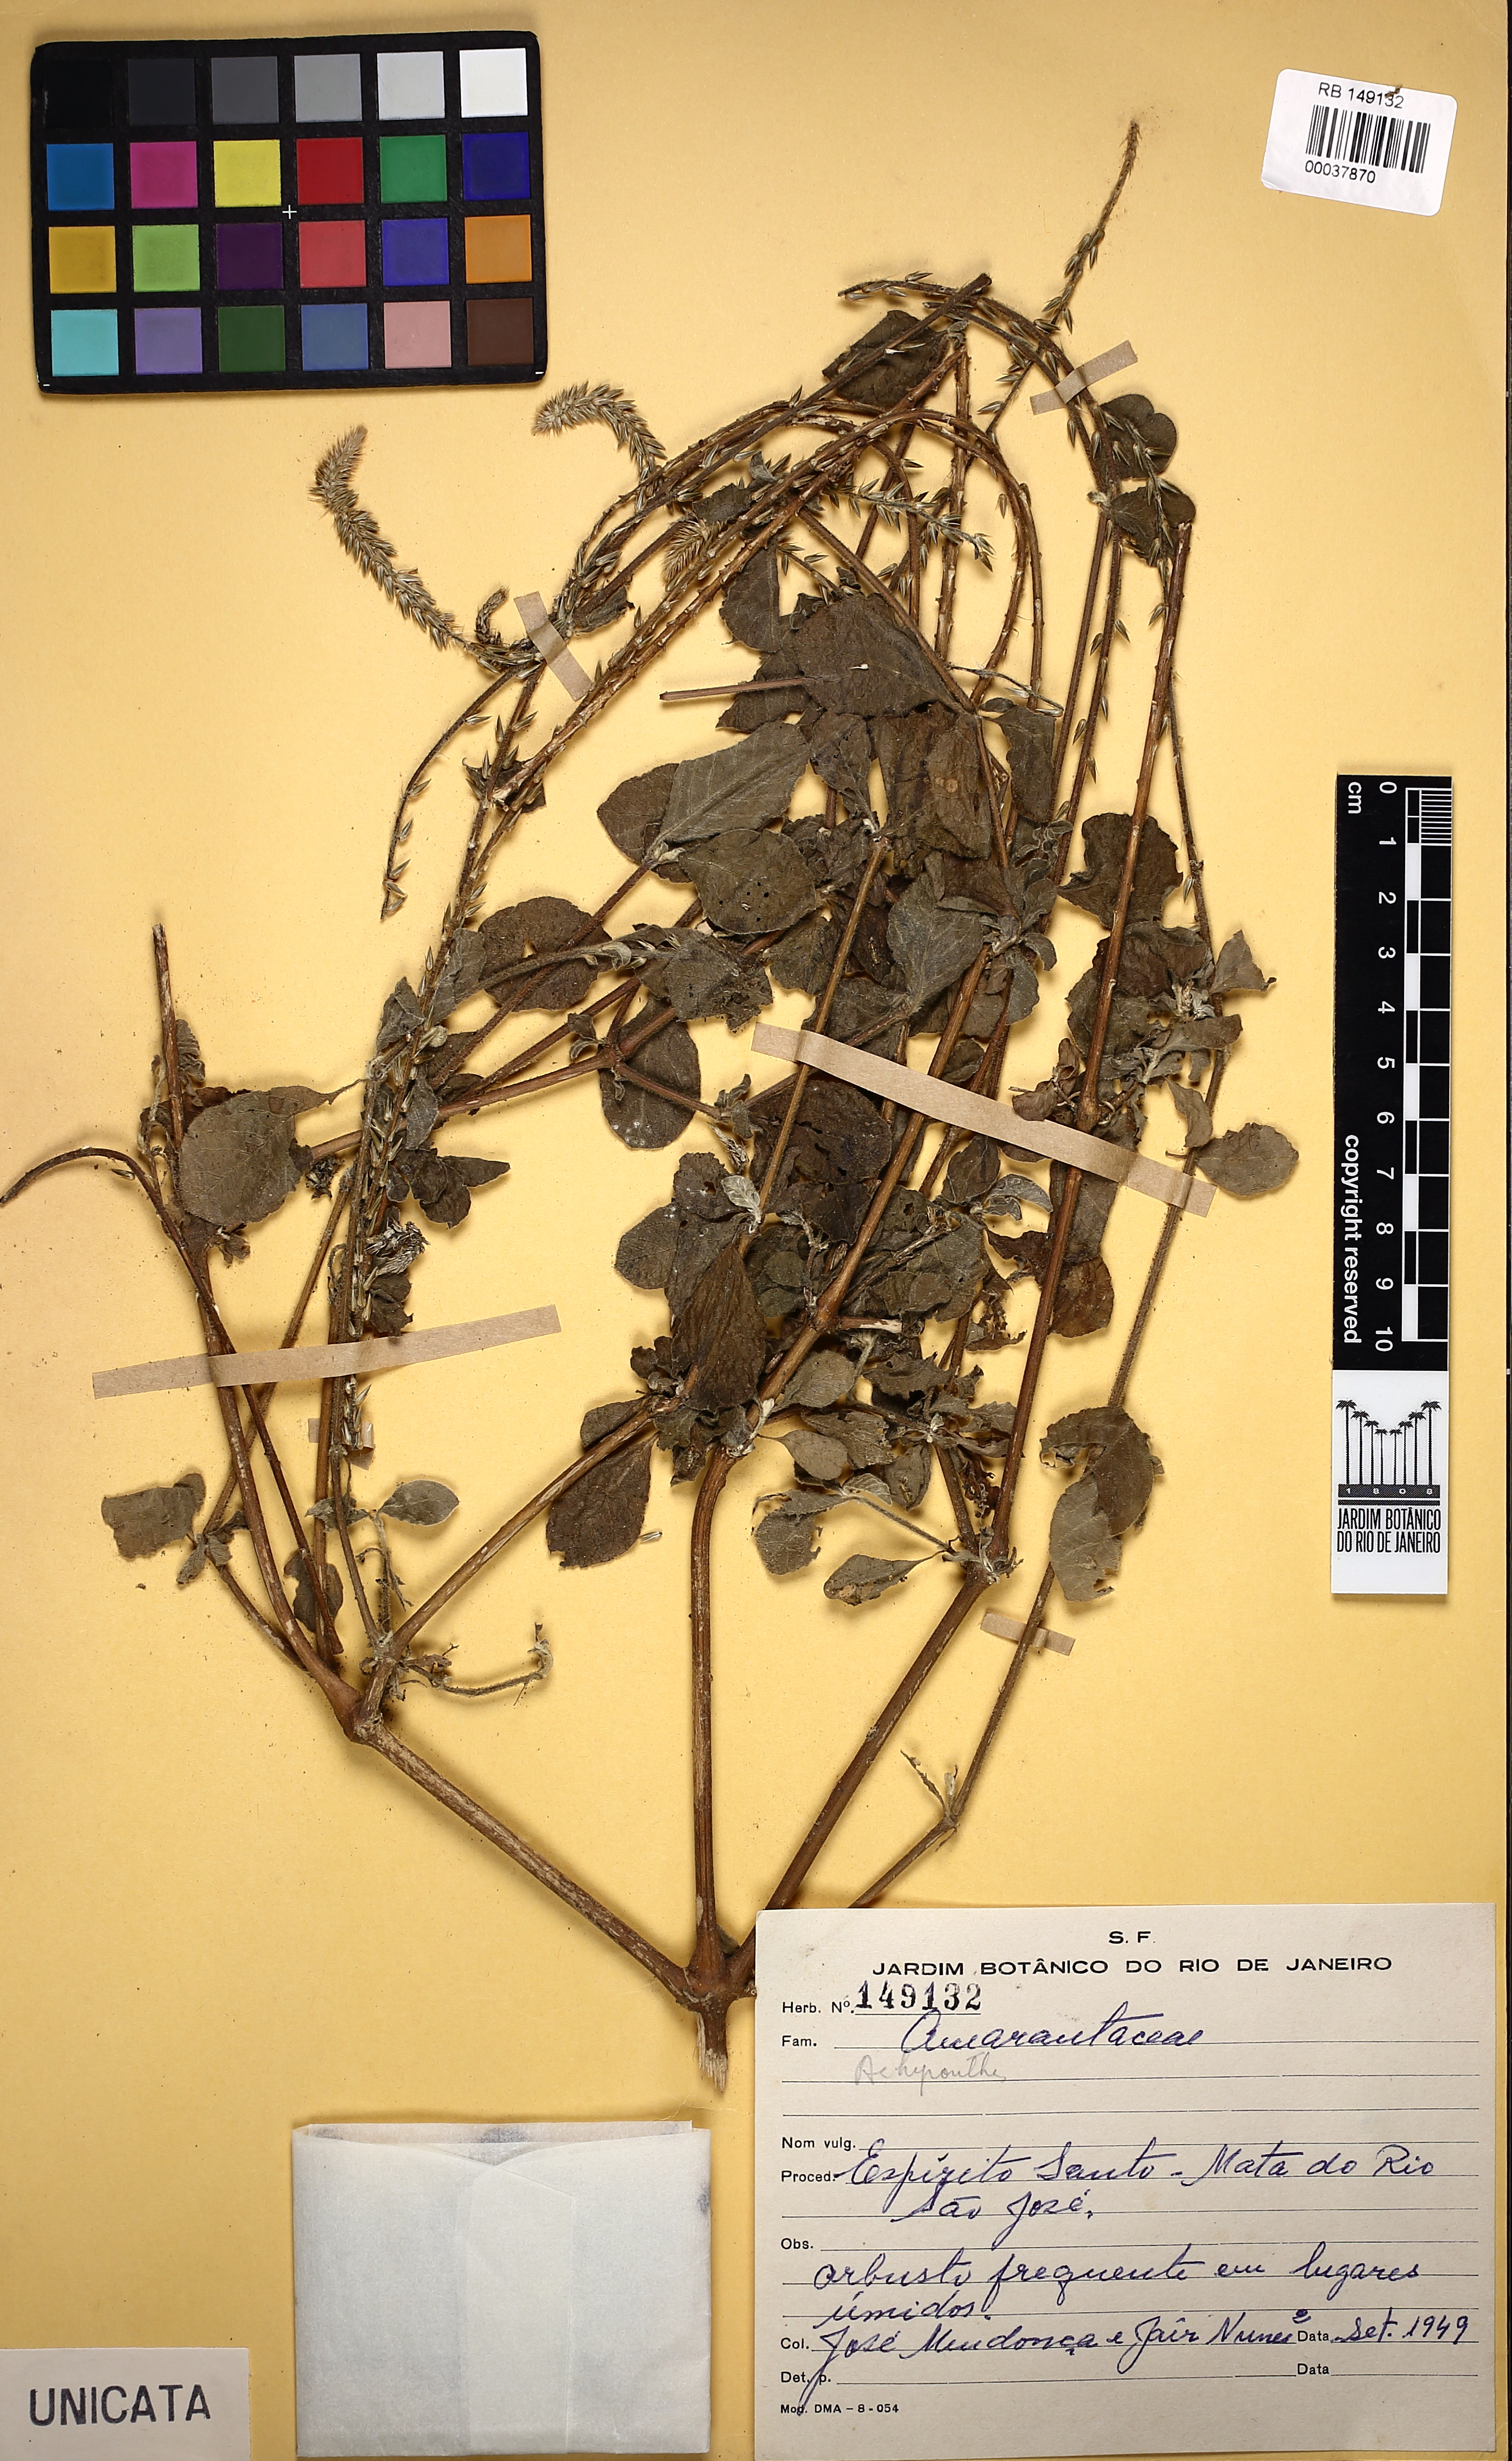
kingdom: Plantae
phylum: Tracheophyta
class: Magnoliopsida
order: Caryophyllales
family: Amaranthaceae
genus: Achyranthes
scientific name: Achyranthes
